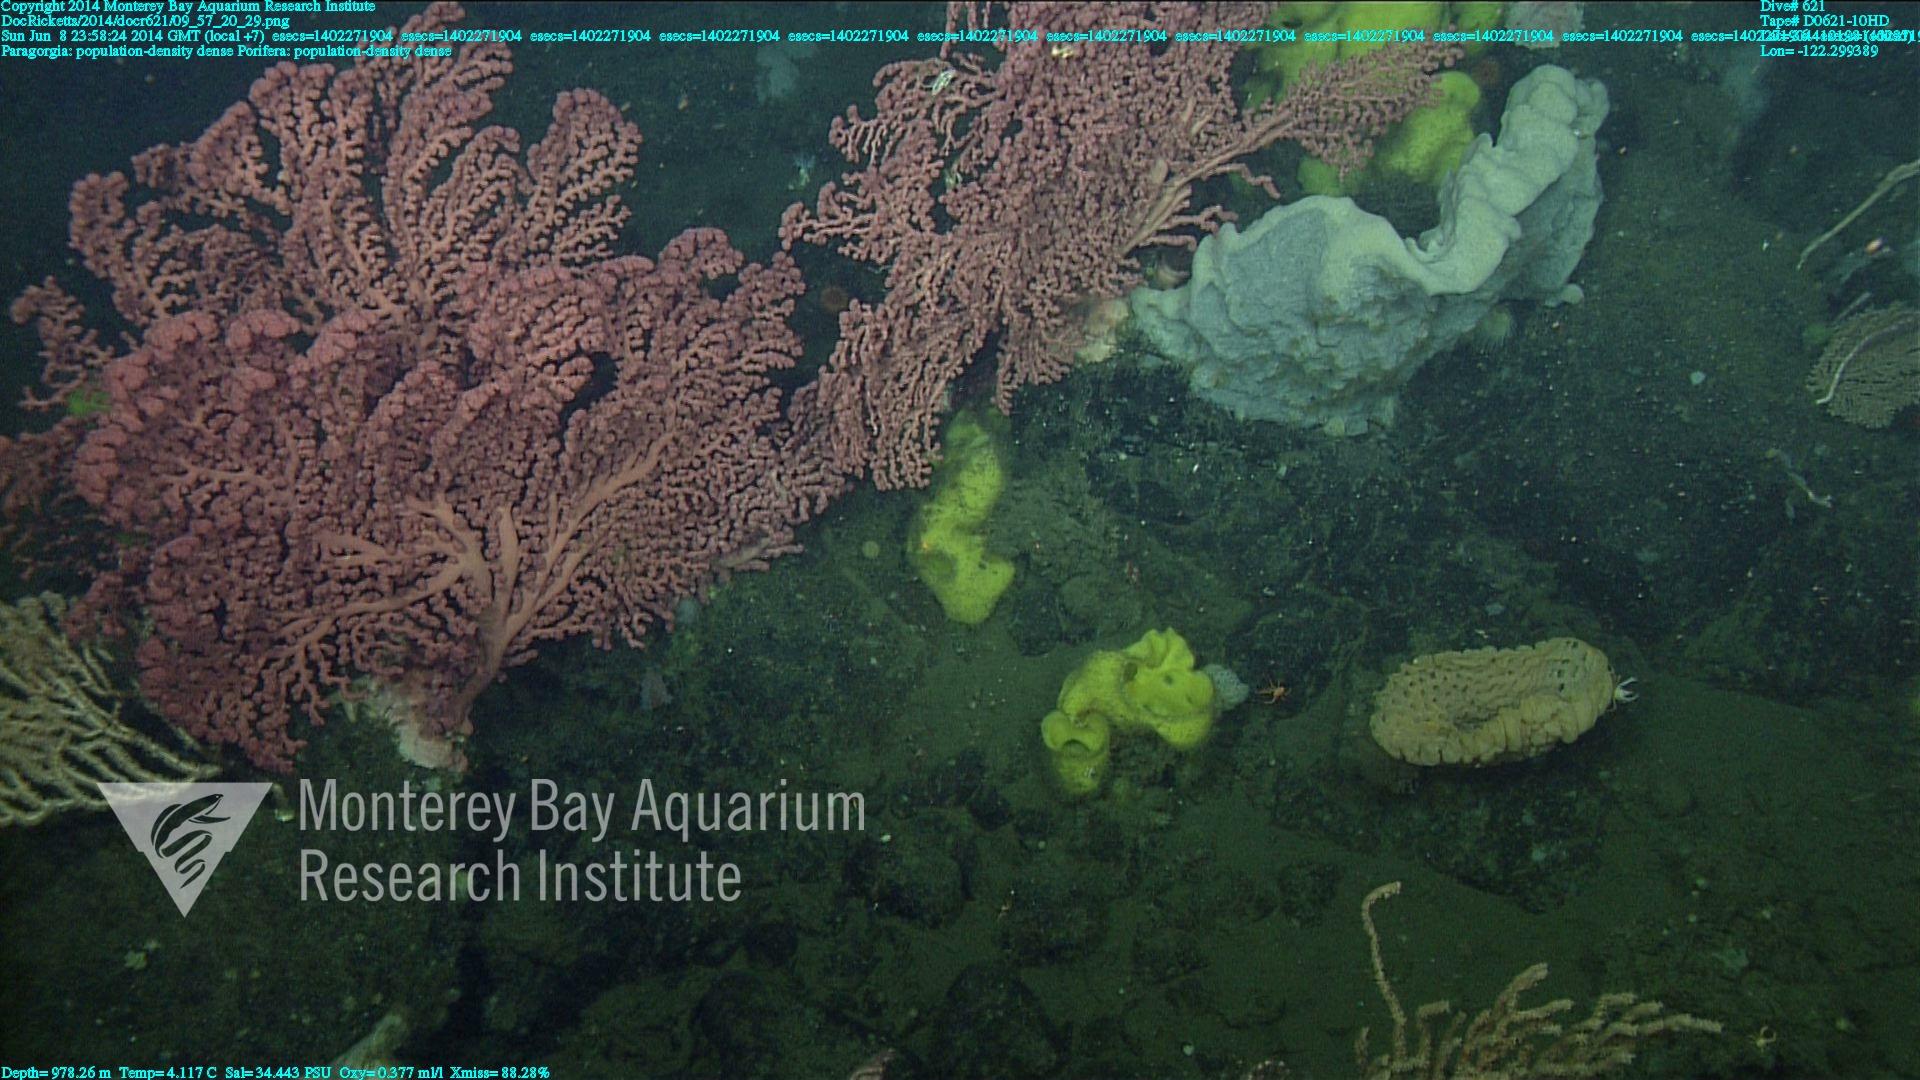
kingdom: Animalia
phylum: Cnidaria
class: Anthozoa
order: Scleralcyonacea
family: Coralliidae
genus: Paragorgia
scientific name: Paragorgia arborea
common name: Bubble gum coral
